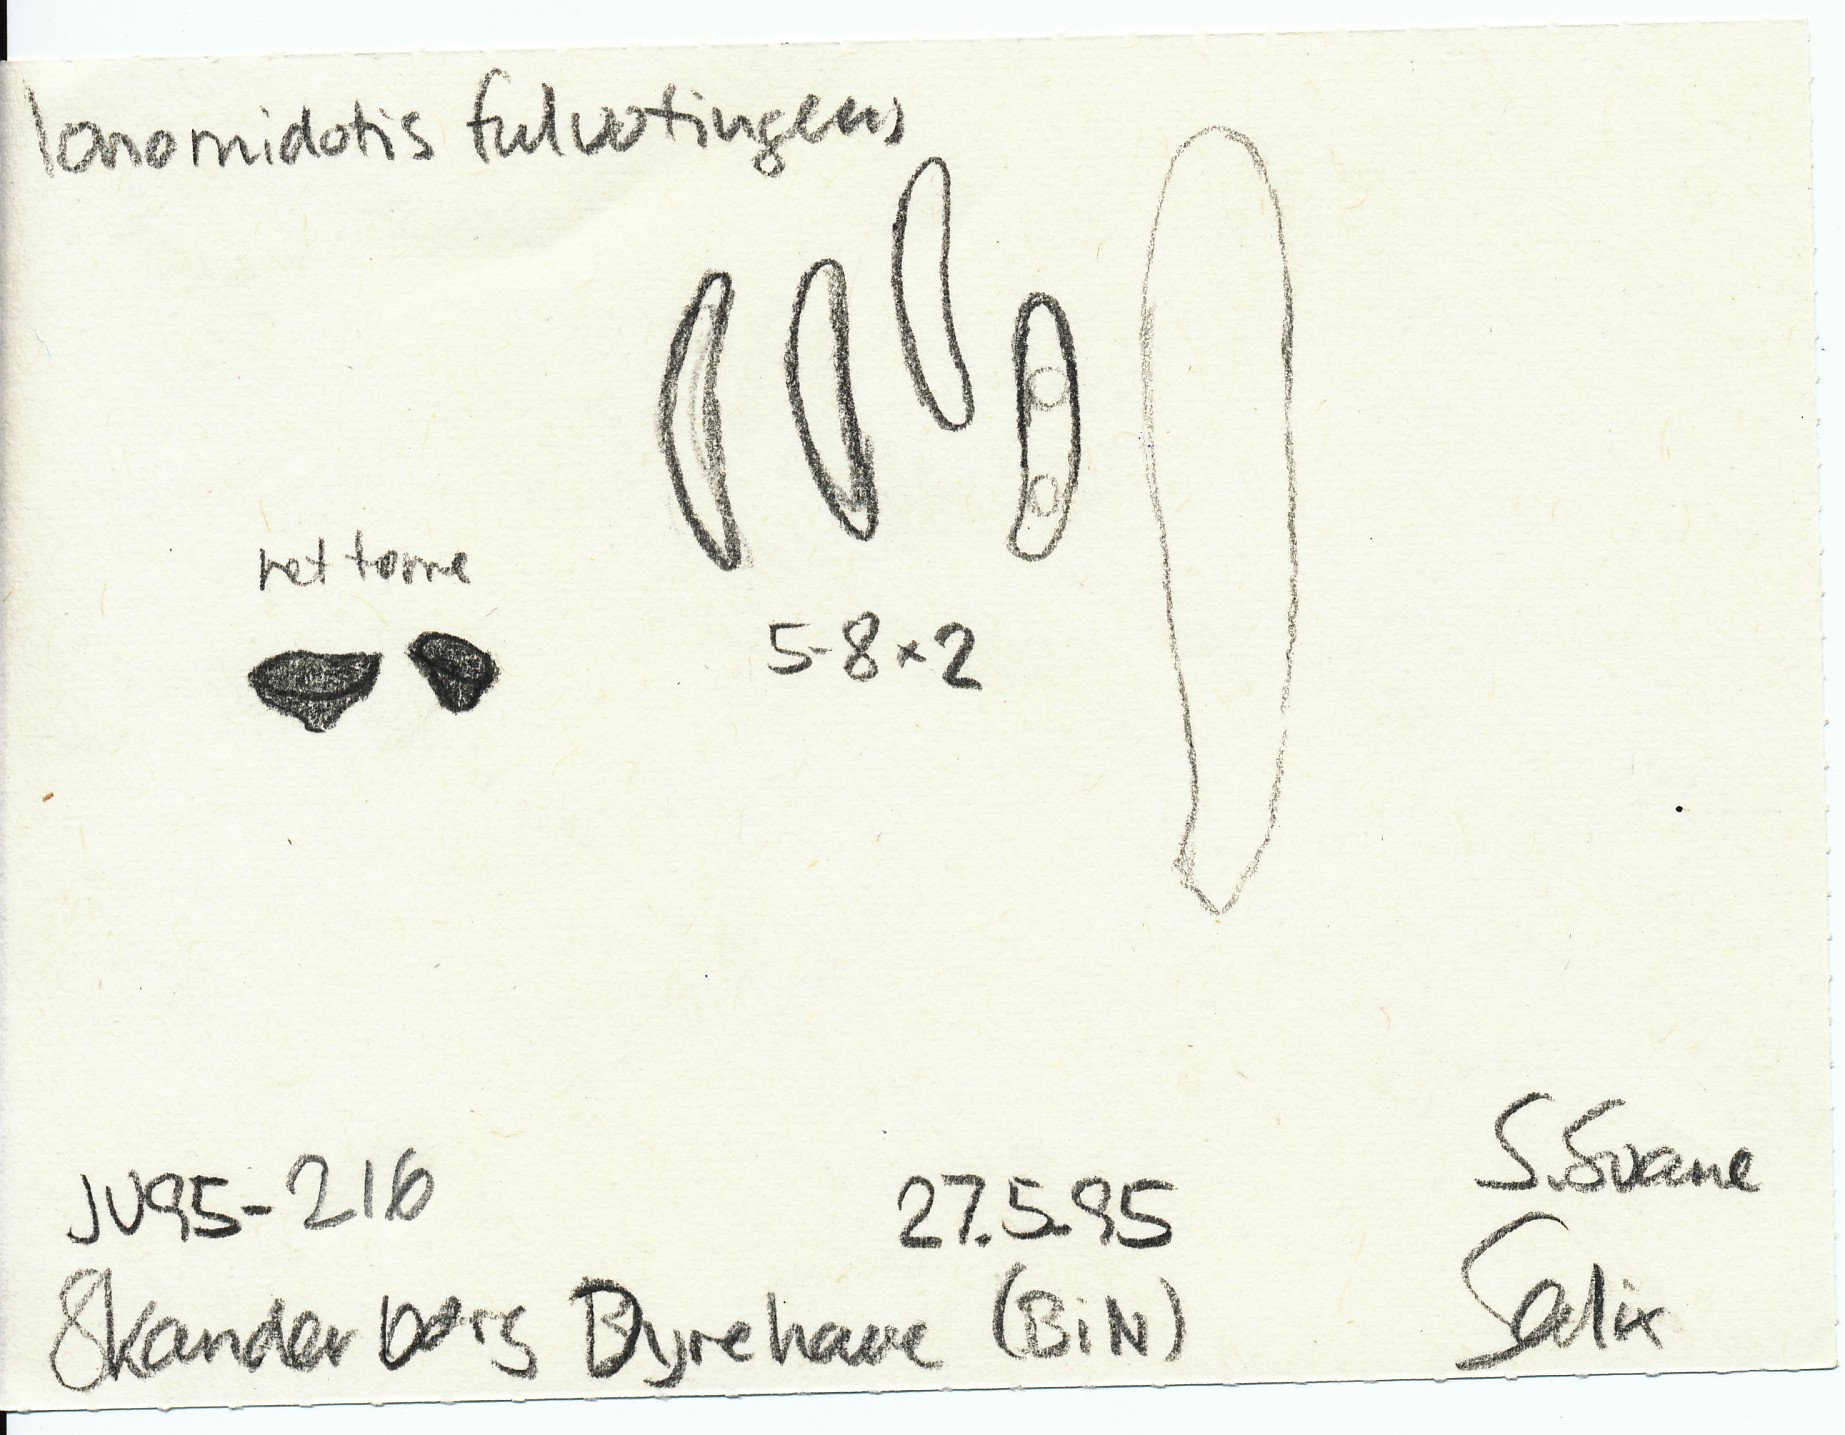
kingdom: Fungi
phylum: Ascomycota
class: Leotiomycetes
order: Helotiales
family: Cordieritidaceae
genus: Ionomidotis
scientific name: Ionomidotis fulvotingens
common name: rødmende tjæreskive
